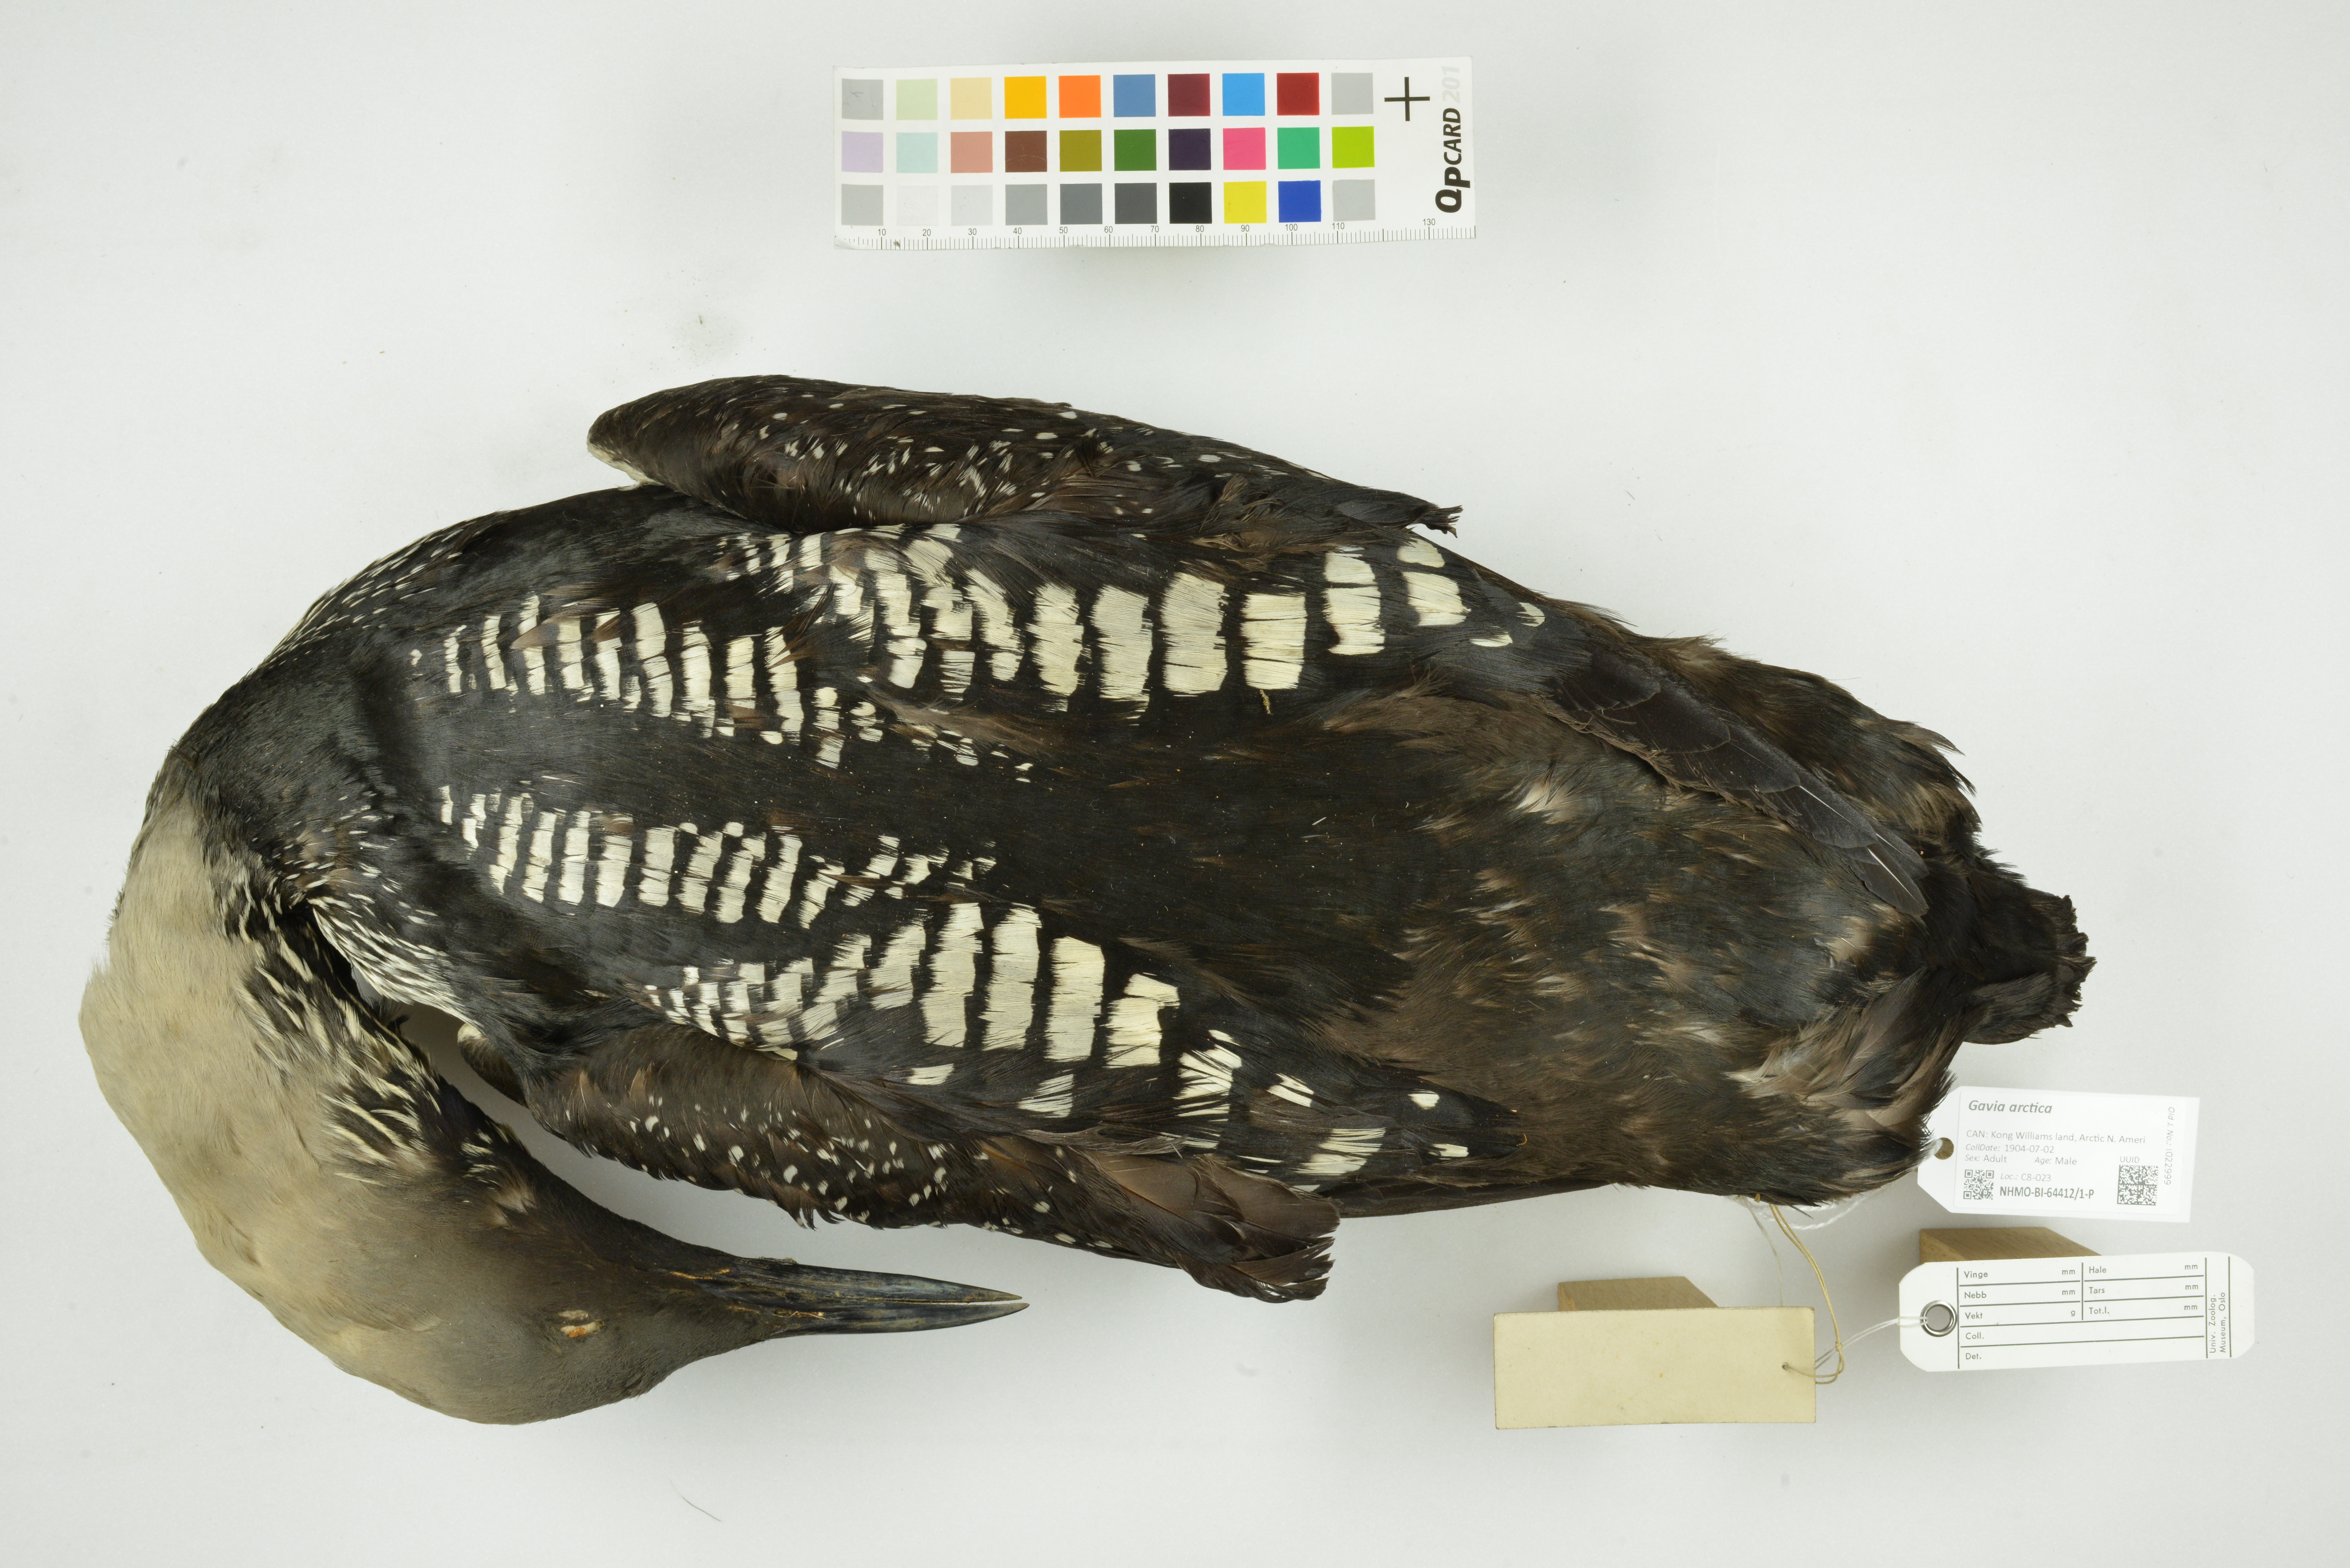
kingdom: Animalia
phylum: Chordata
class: Aves
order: Gaviiformes
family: Gaviidae
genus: Gavia
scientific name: Gavia pacifica
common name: Pacific loon
